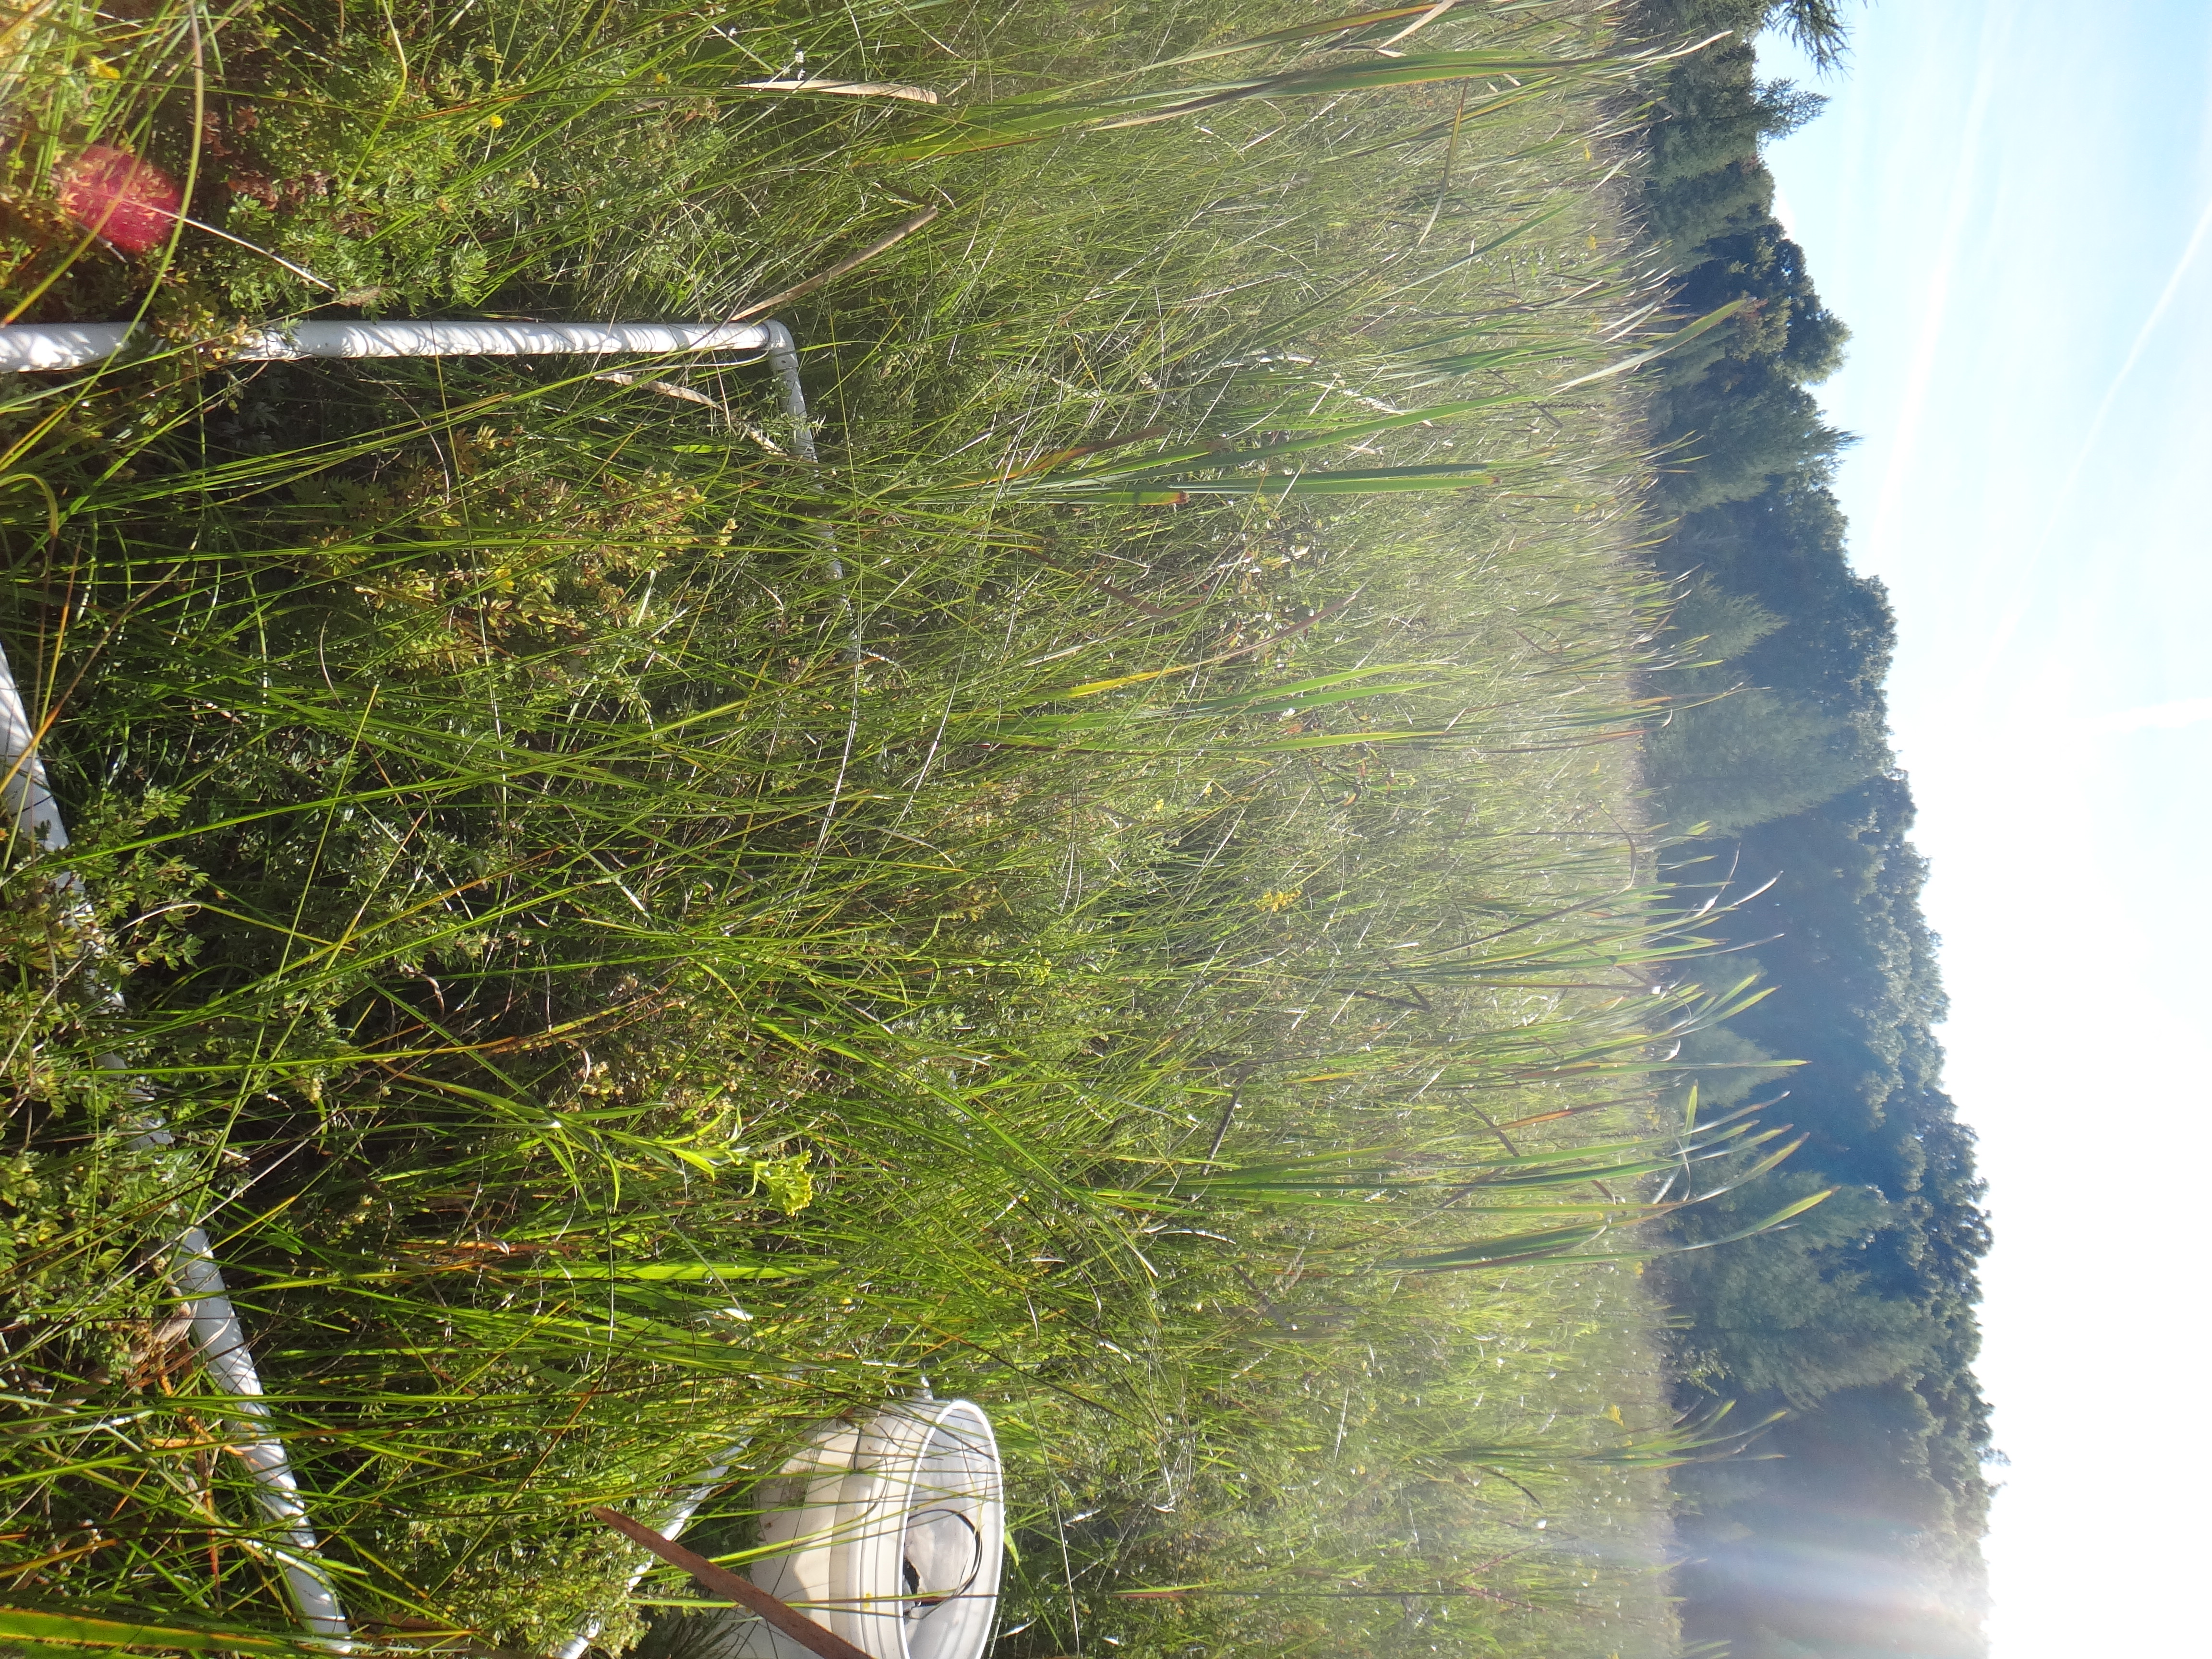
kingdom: Plantae
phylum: Tracheophyta
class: Liliopsida
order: Poales
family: Cyperaceae
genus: Carex
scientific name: Carex sterilis
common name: Dioecious sedge
